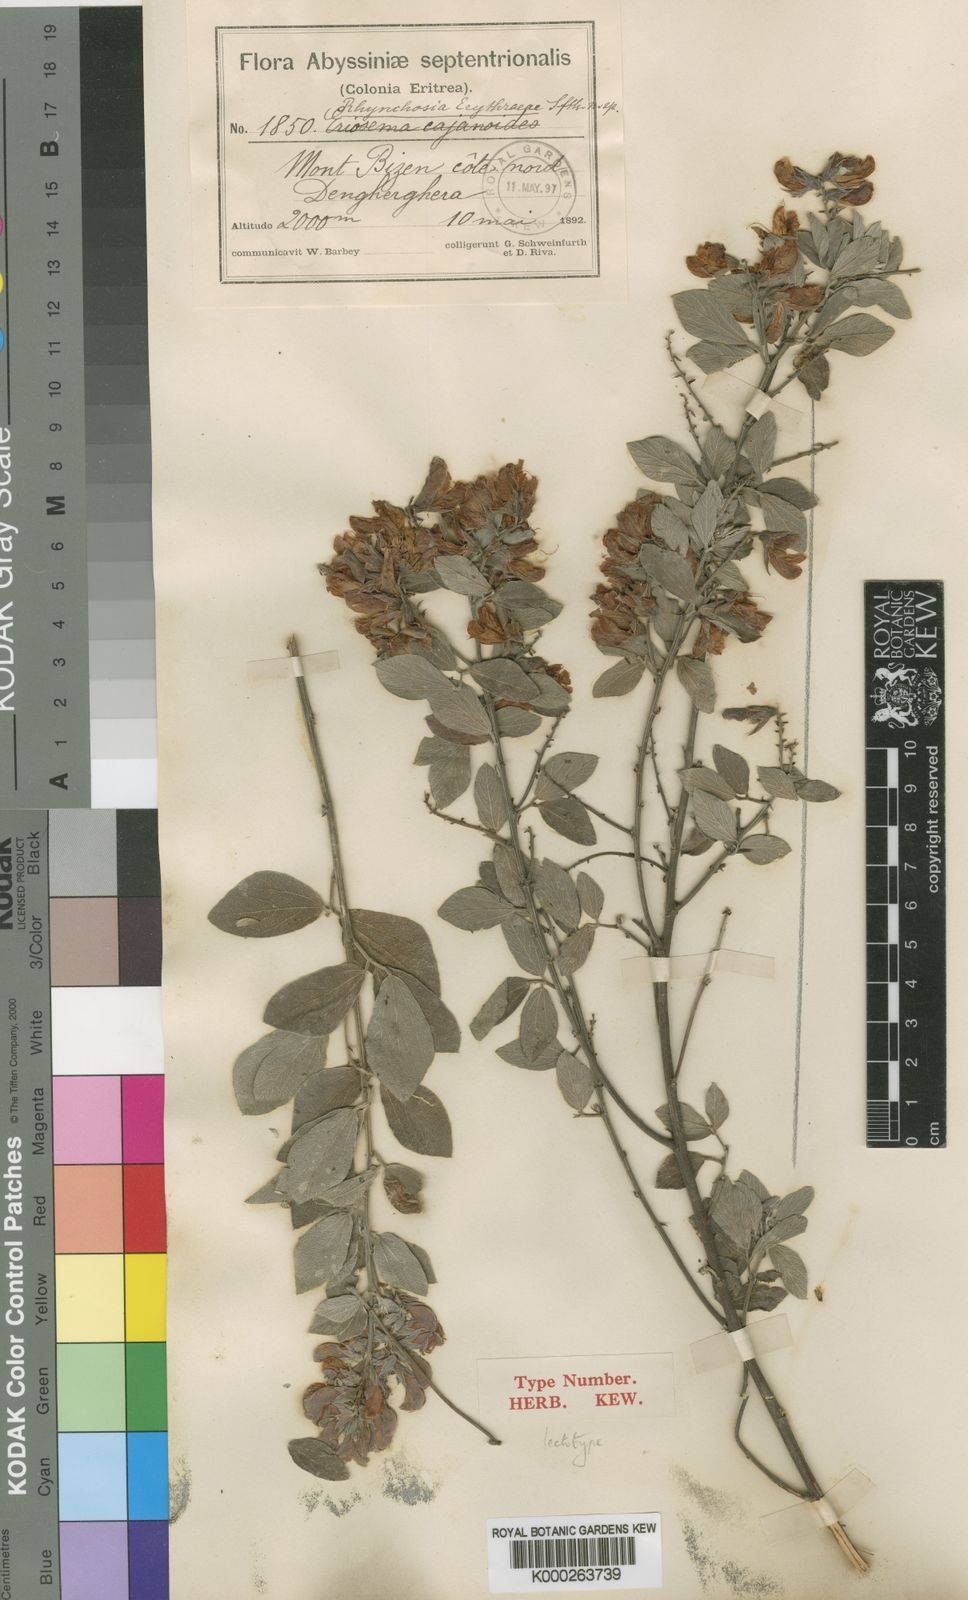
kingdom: Plantae
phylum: Tracheophyta
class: Magnoliopsida
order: Fabales
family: Fabaceae
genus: Rhynchosia
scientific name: Rhynchosia erythraeae
